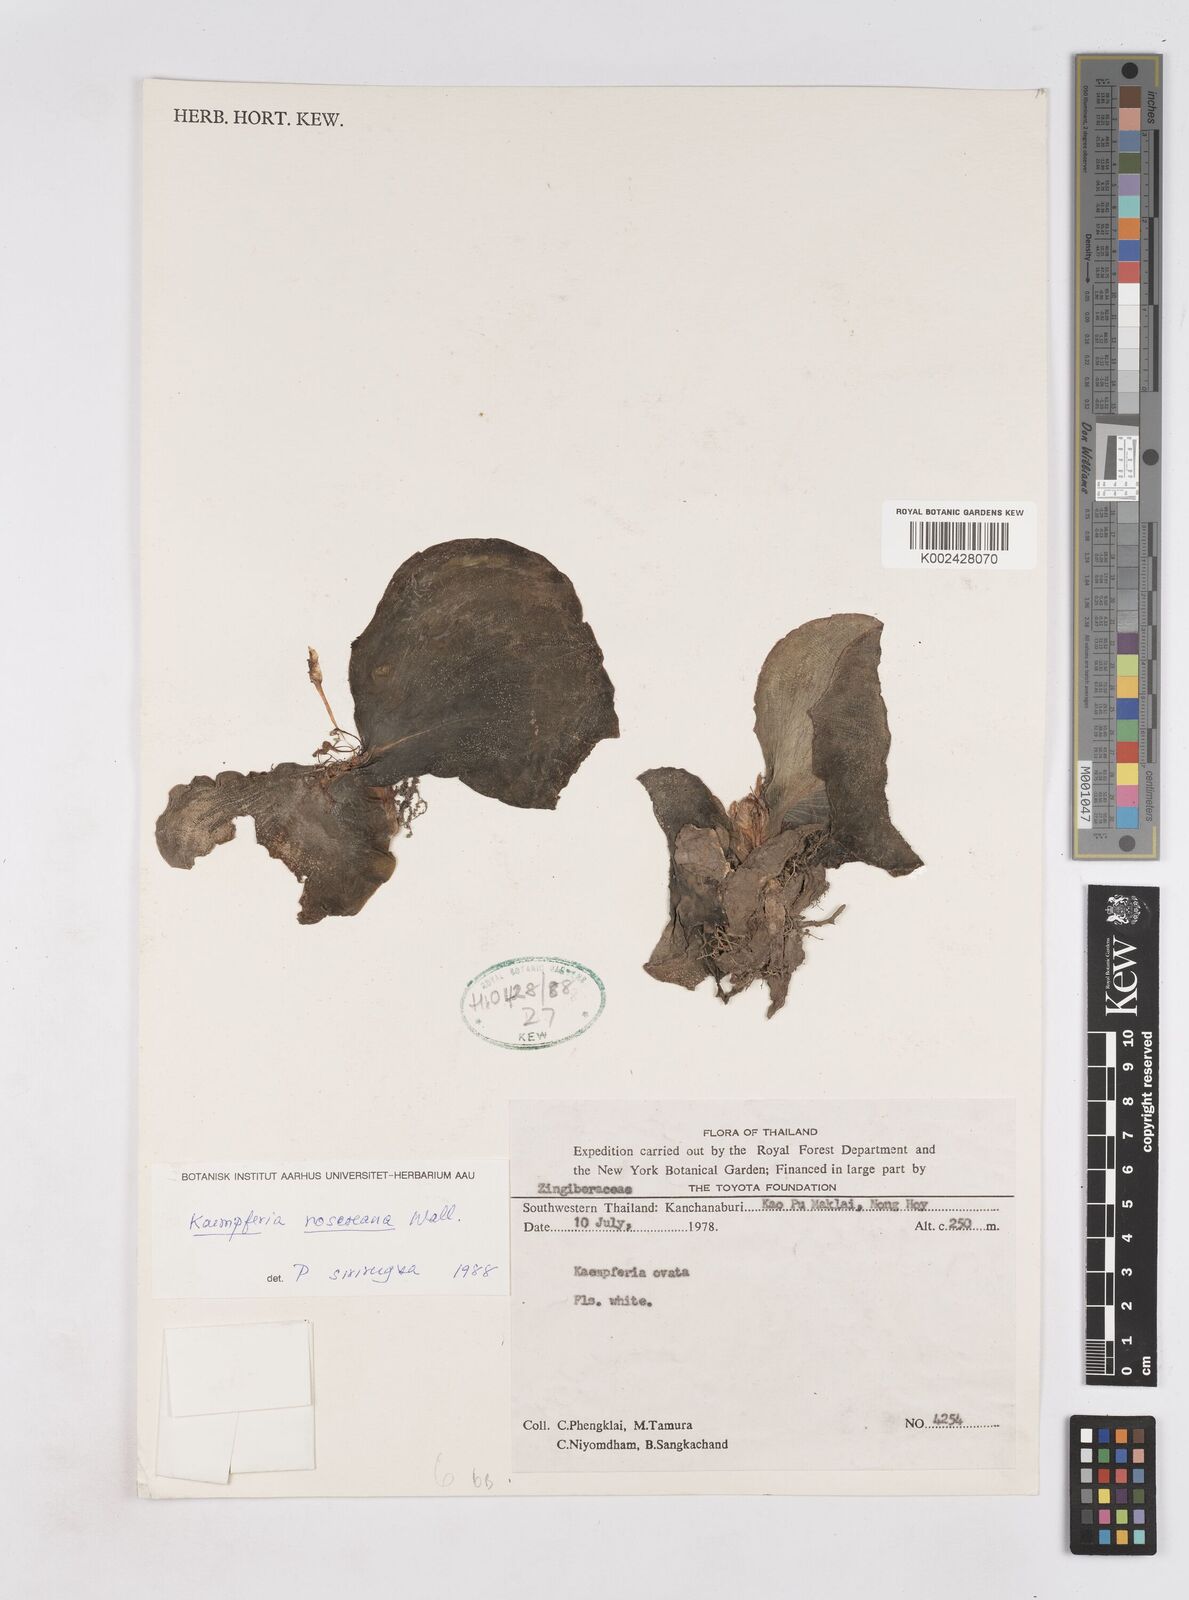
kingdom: Plantae
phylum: Tracheophyta
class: Liliopsida
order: Zingiberales
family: Zingiberaceae
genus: Kaempferia
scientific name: Kaempferia roscoeana
